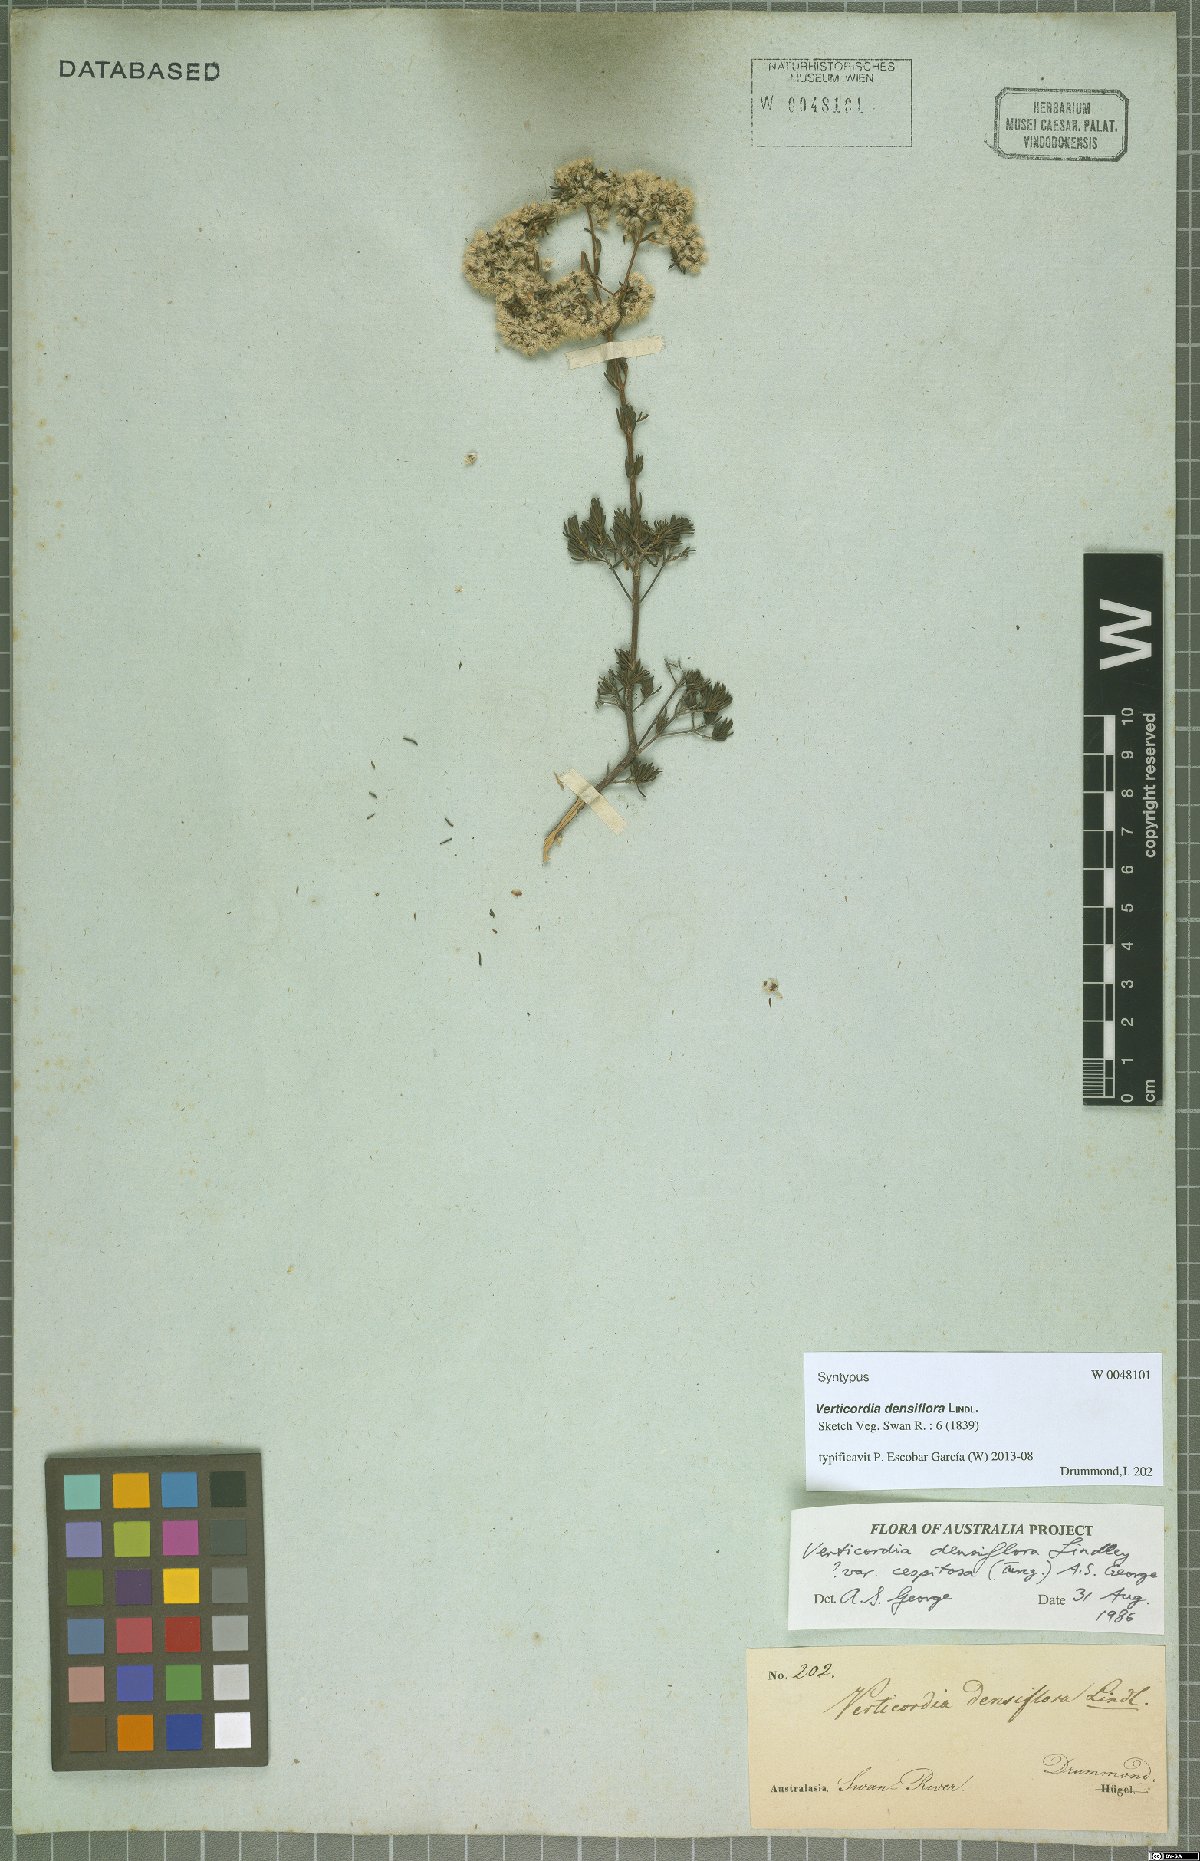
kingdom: Plantae
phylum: Tracheophyta
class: Magnoliopsida
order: Myrtales
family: Myrtaceae
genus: Verticordia
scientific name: Verticordia densiflora
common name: Compact feather-flower
